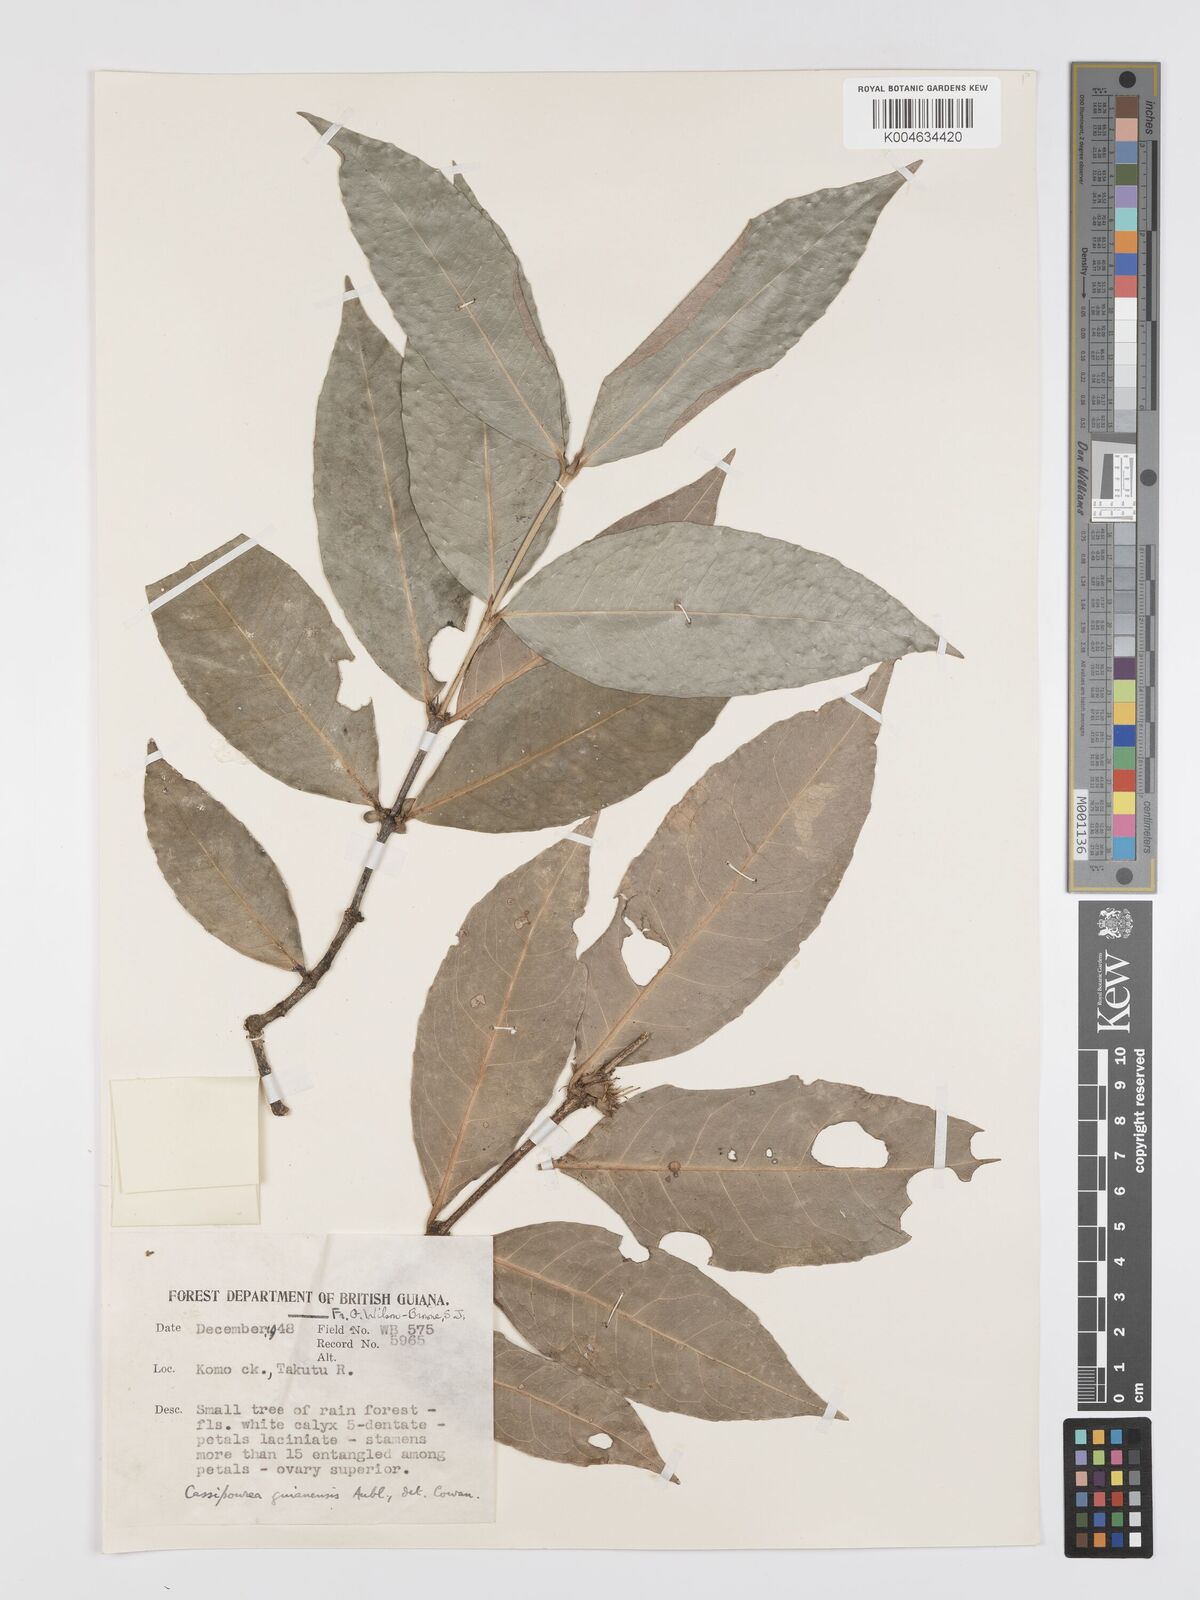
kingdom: Plantae
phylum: Tracheophyta
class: Magnoliopsida
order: Malpighiales
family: Rhizophoraceae
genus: Cassipourea
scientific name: Cassipourea guianensis
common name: Bastard waterwood
